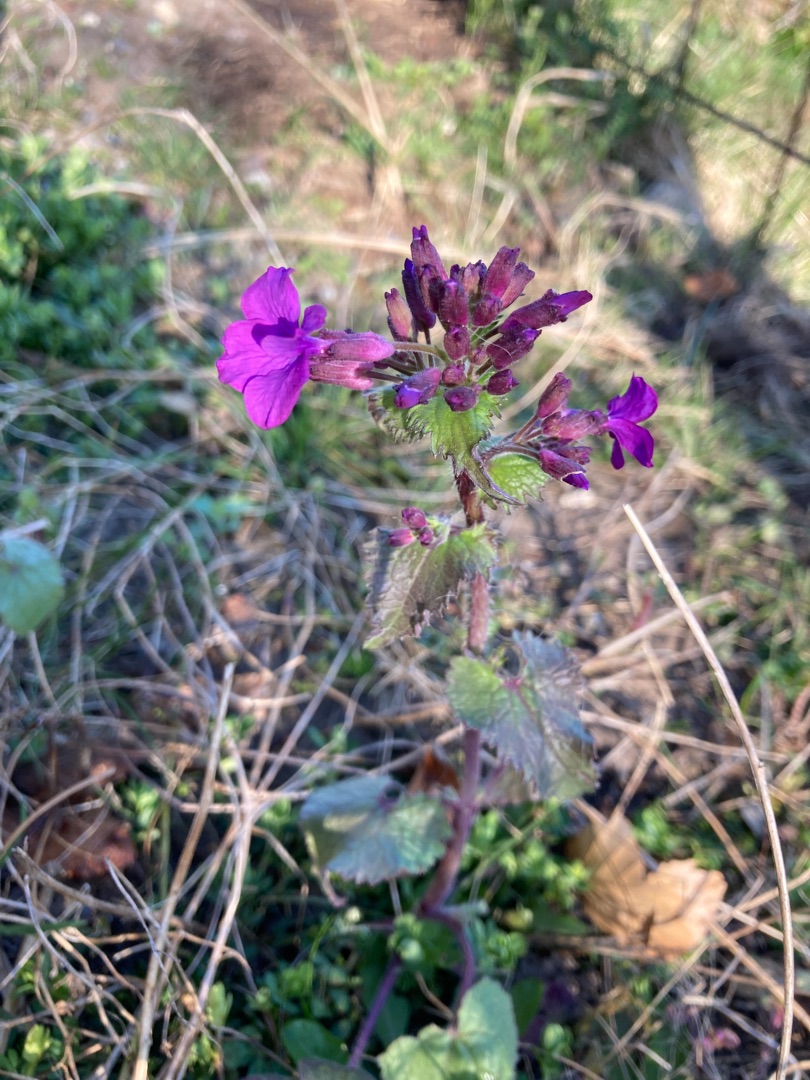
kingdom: Plantae
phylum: Tracheophyta
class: Magnoliopsida
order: Brassicales
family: Brassicaceae
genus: Lunaria
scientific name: Lunaria annua
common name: Judaspenge
